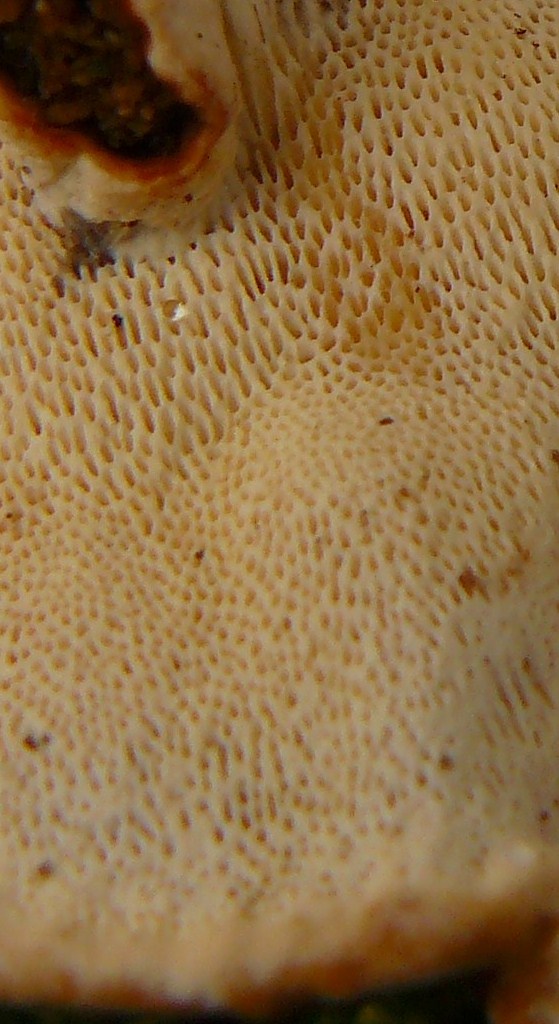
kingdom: Fungi
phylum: Basidiomycota
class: Agaricomycetes
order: Russulales
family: Bondarzewiaceae
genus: Heterobasidion
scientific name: Heterobasidion annosum
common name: almindelig rodfordærver
